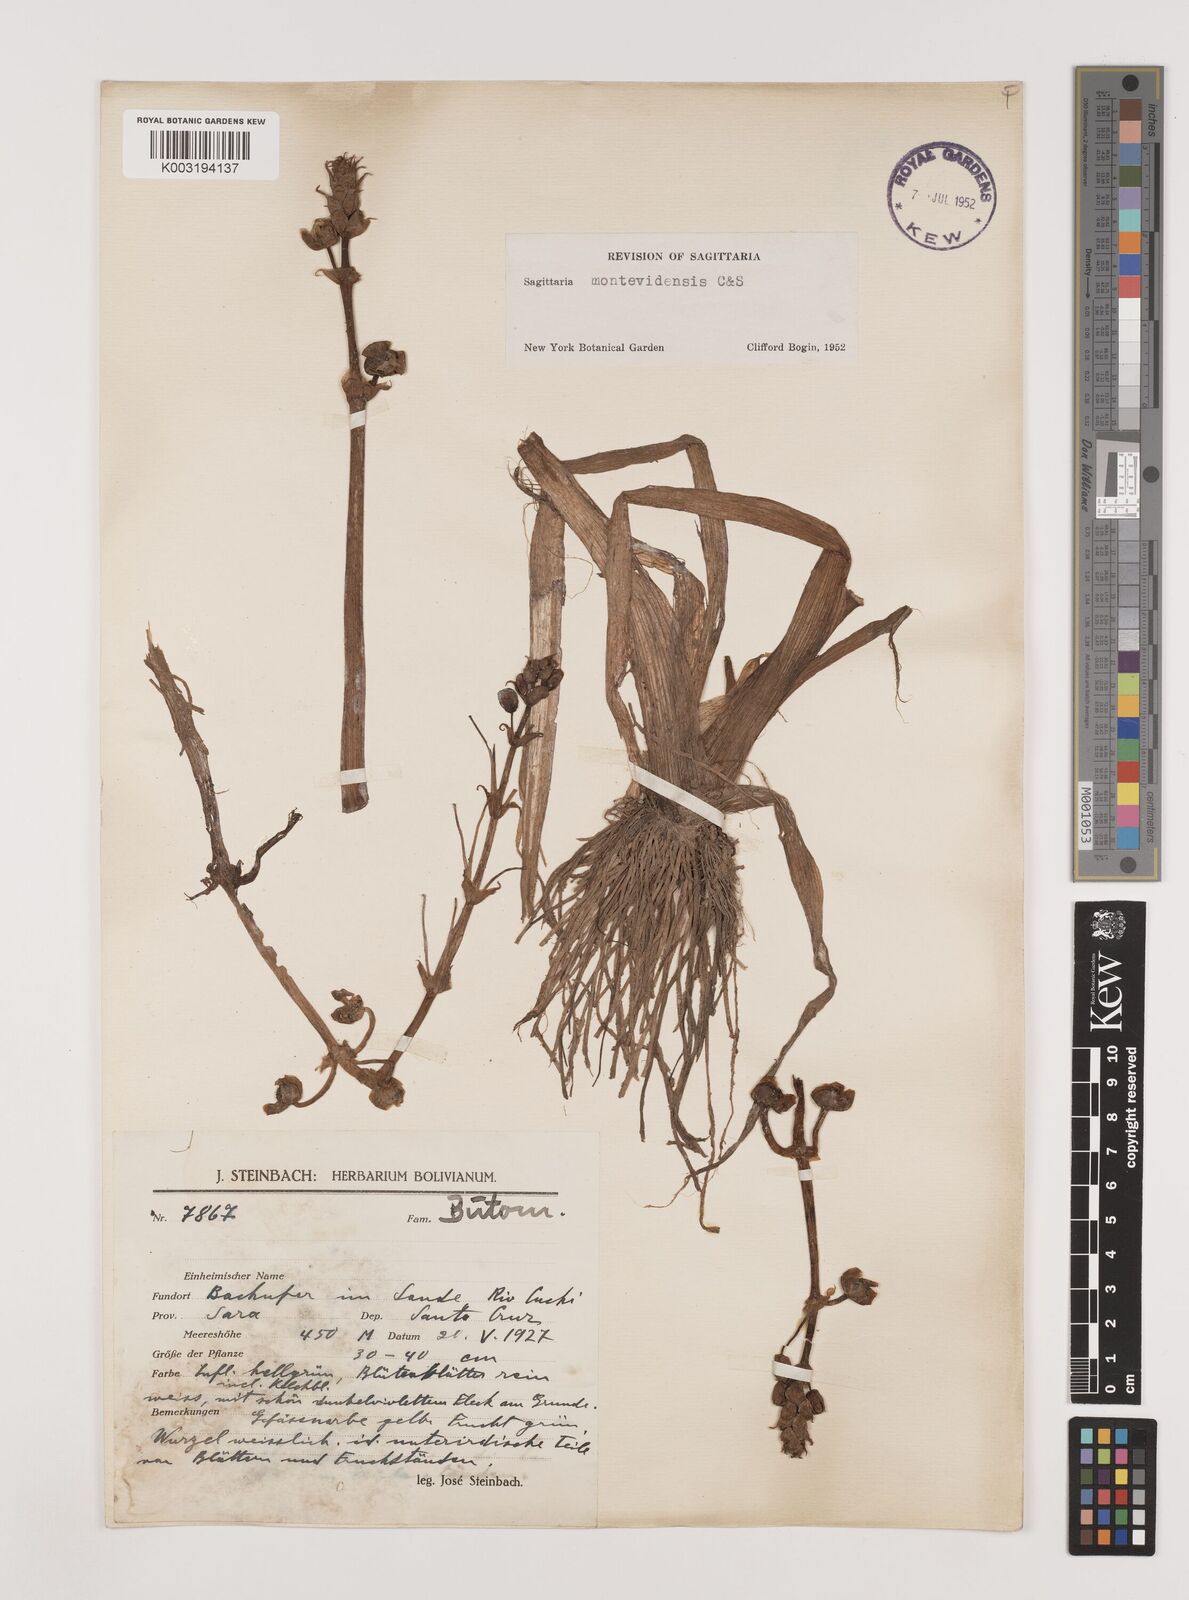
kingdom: Plantae
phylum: Tracheophyta
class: Liliopsida
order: Alismatales
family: Alismataceae
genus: Sagittaria
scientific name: Sagittaria montevidensis
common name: Giant arrowhead
